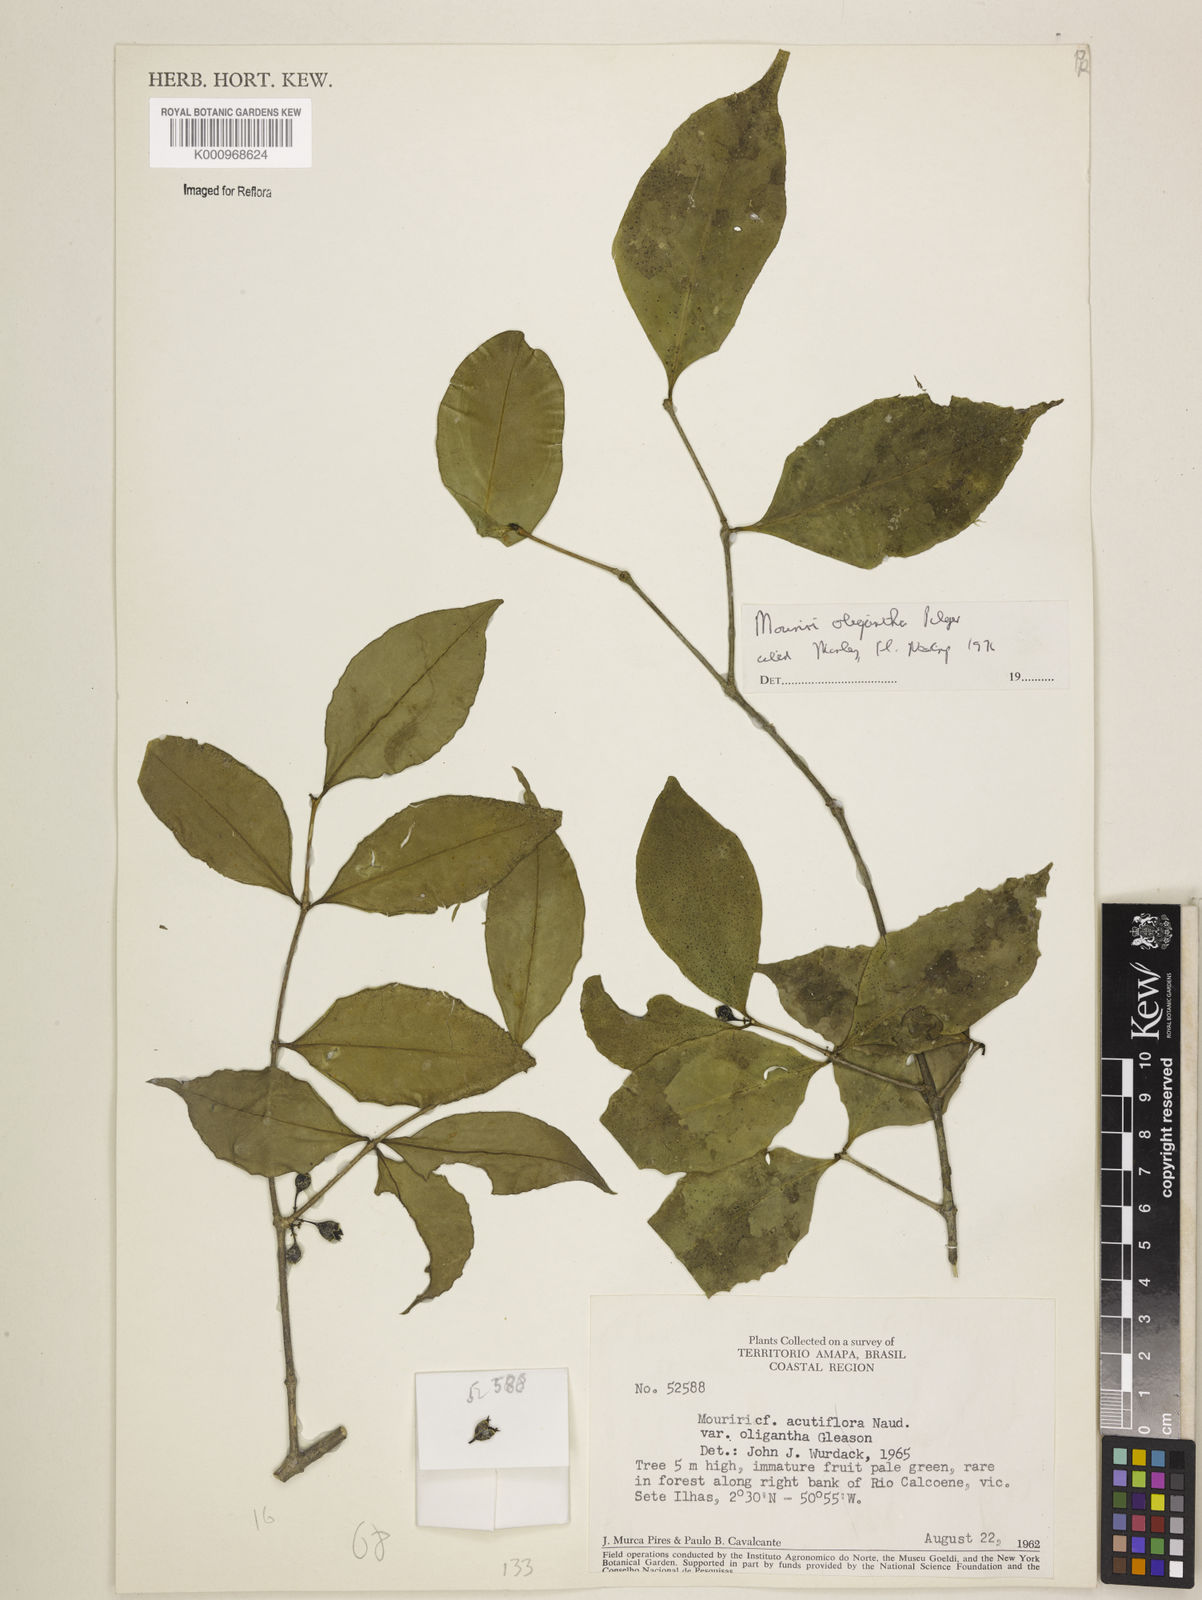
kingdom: Plantae
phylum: Tracheophyta
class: Magnoliopsida
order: Myrtales
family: Melastomataceae
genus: Mouriri
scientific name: Mouriri oligantha
